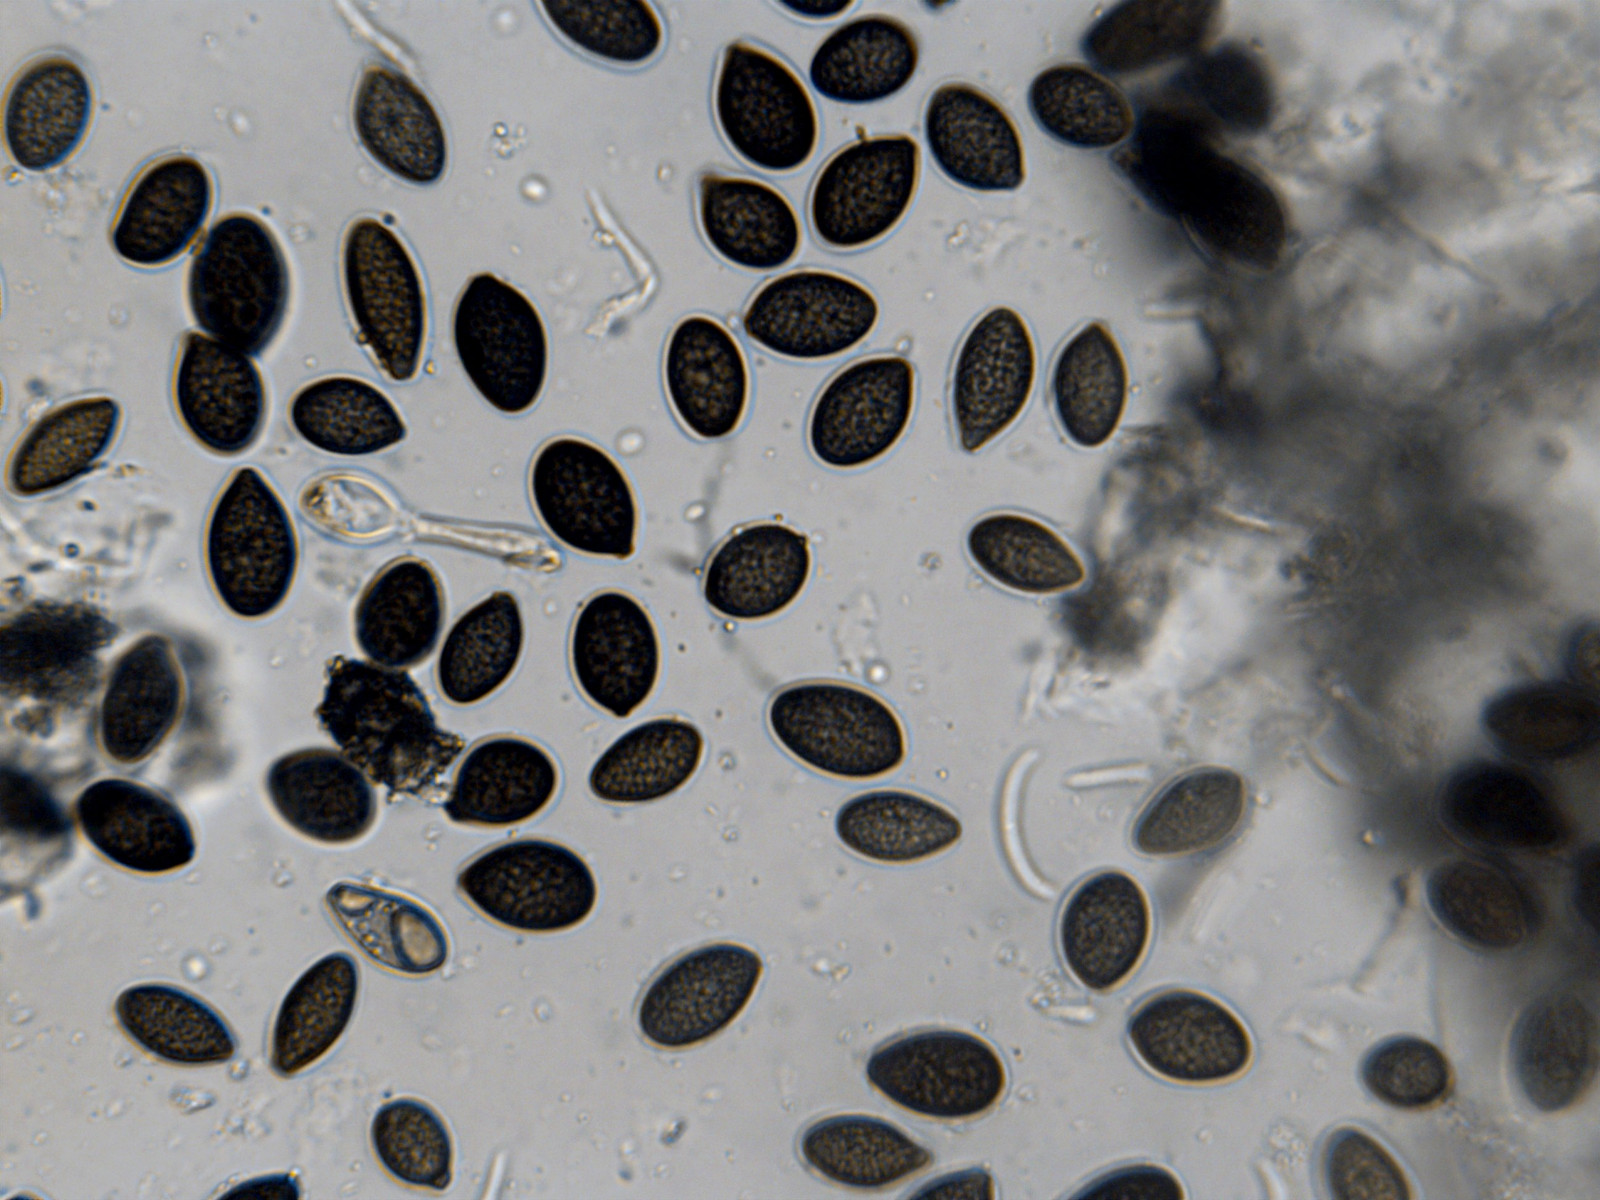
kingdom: Fungi
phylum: Ascomycota
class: Sordariomycetes
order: Diaporthales
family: Juglanconidaceae
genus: Juglanconis
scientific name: Juglanconis juglandina
